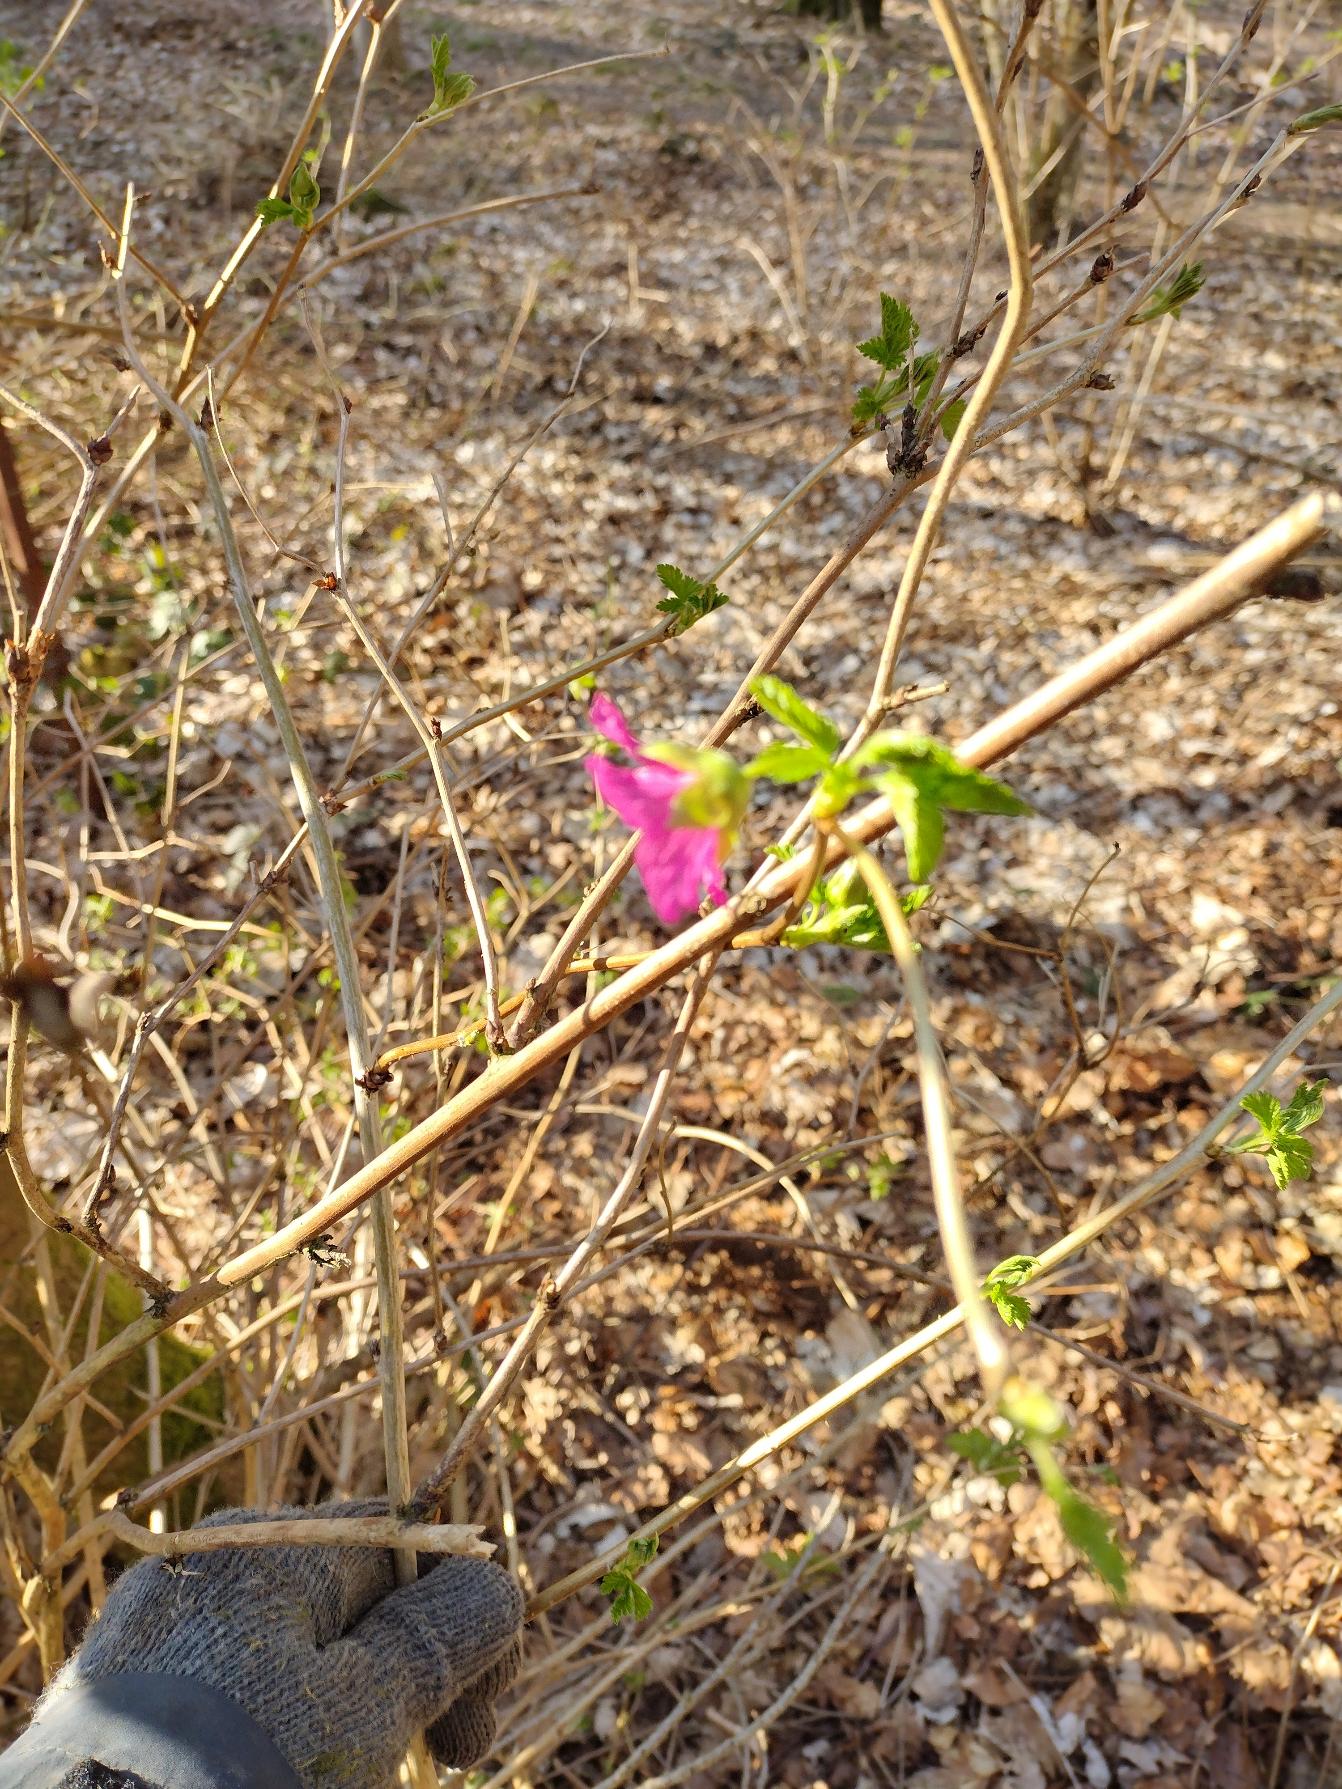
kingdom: Plantae
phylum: Tracheophyta
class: Magnoliopsida
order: Rosales
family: Rosaceae
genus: Rubus
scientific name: Rubus spectabilis
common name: Laksebær
